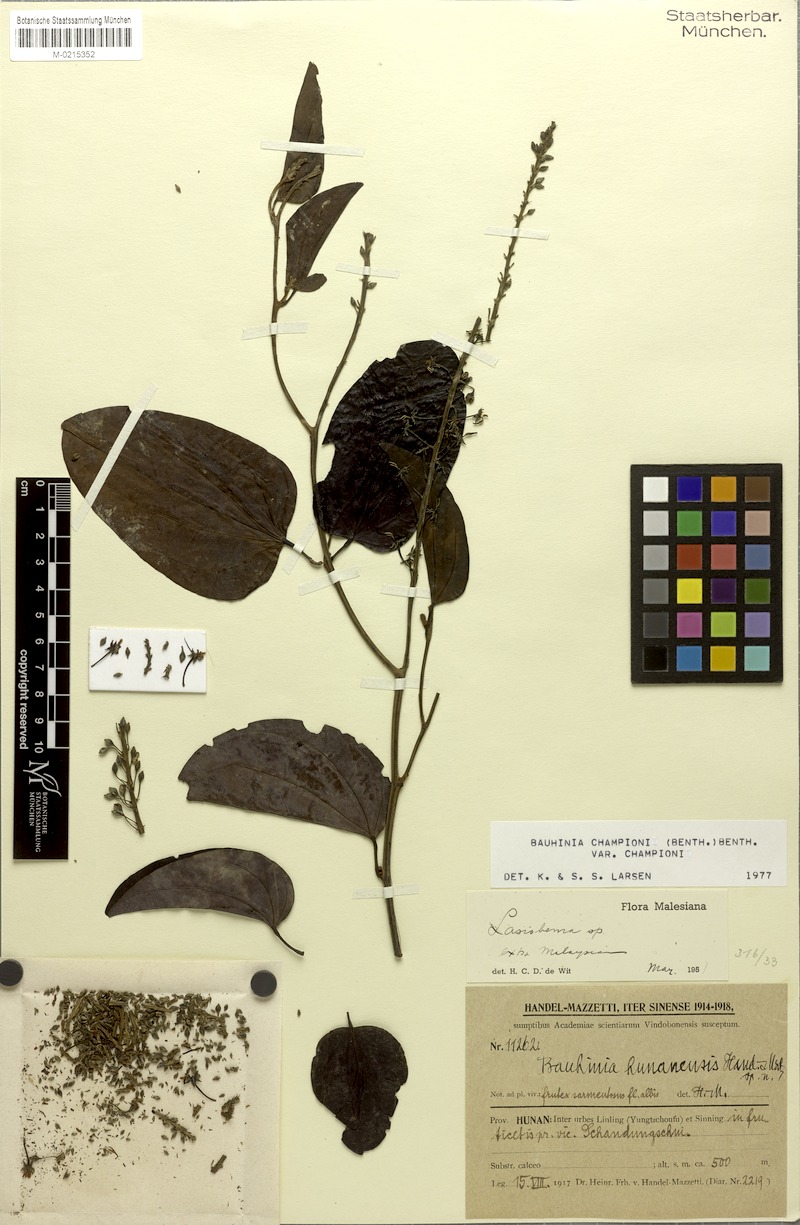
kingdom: Plantae
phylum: Tracheophyta
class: Magnoliopsida
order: Fabales
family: Fabaceae
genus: Phanera
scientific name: Phanera championii
